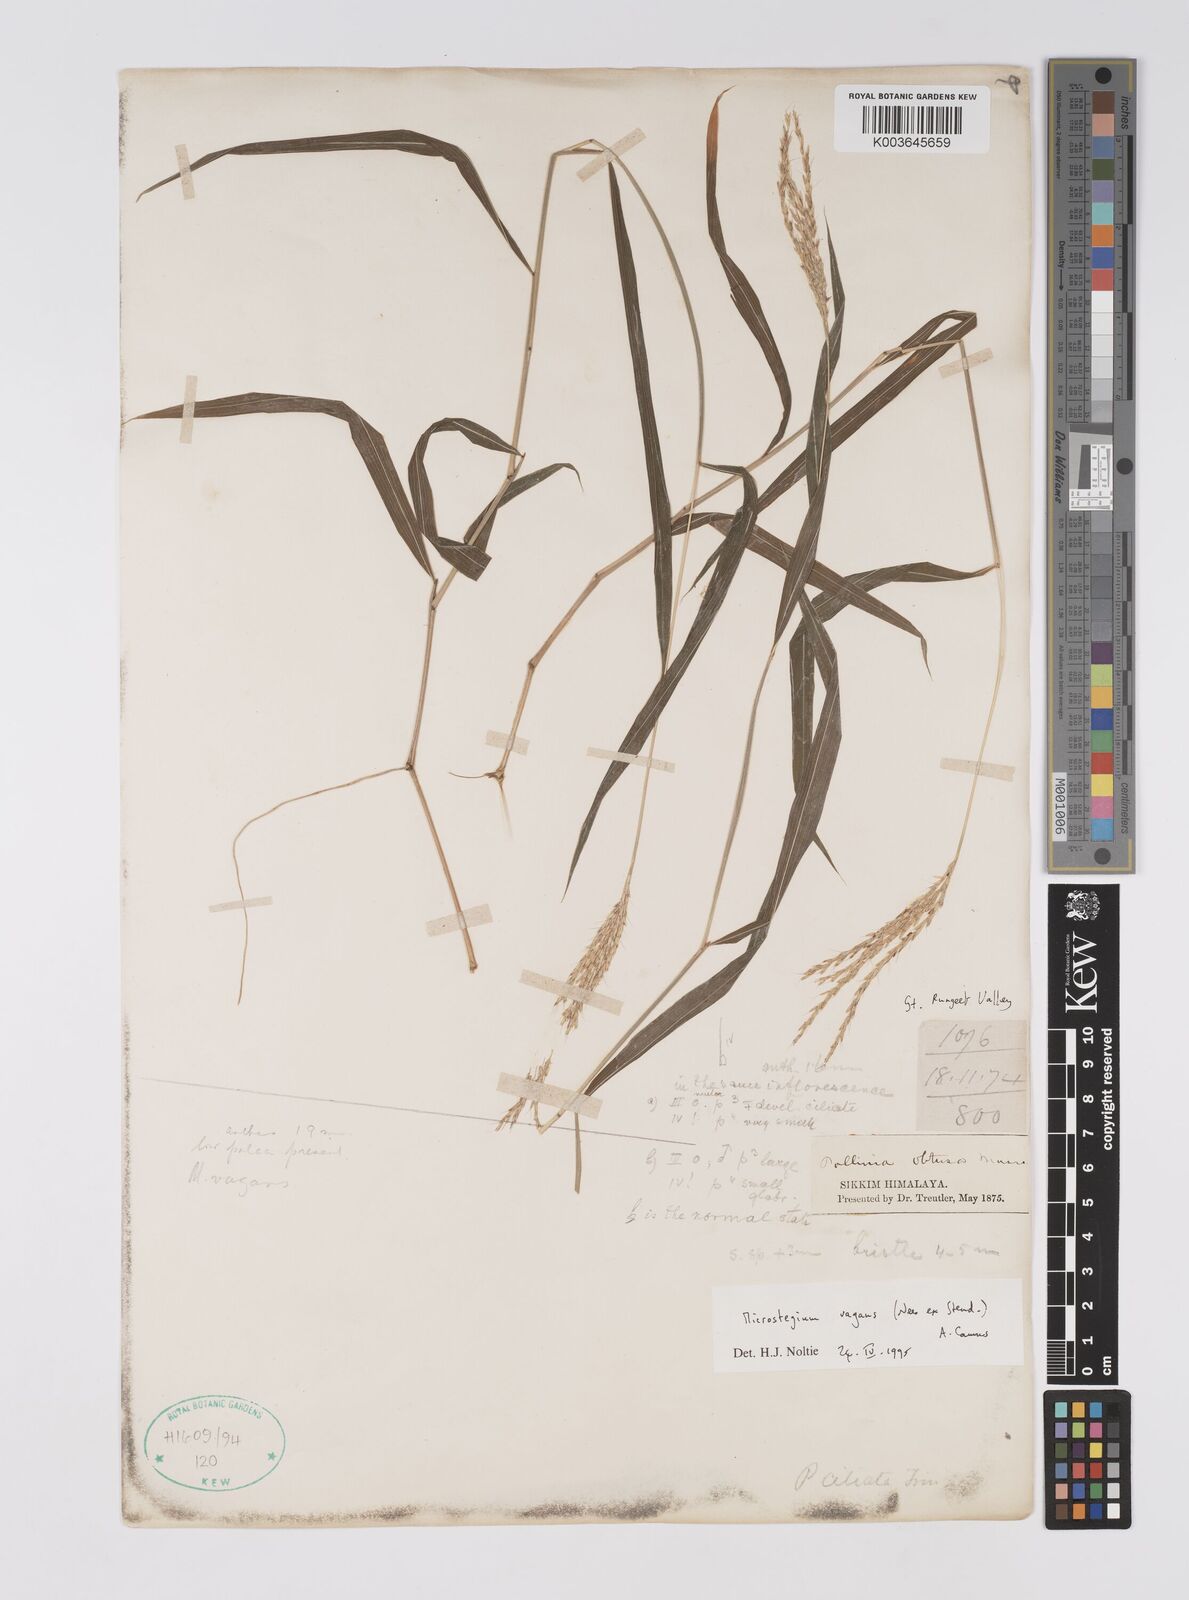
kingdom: Plantae
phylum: Tracheophyta
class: Liliopsida
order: Poales
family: Poaceae
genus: Microstegium
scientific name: Microstegium fasciculatum
